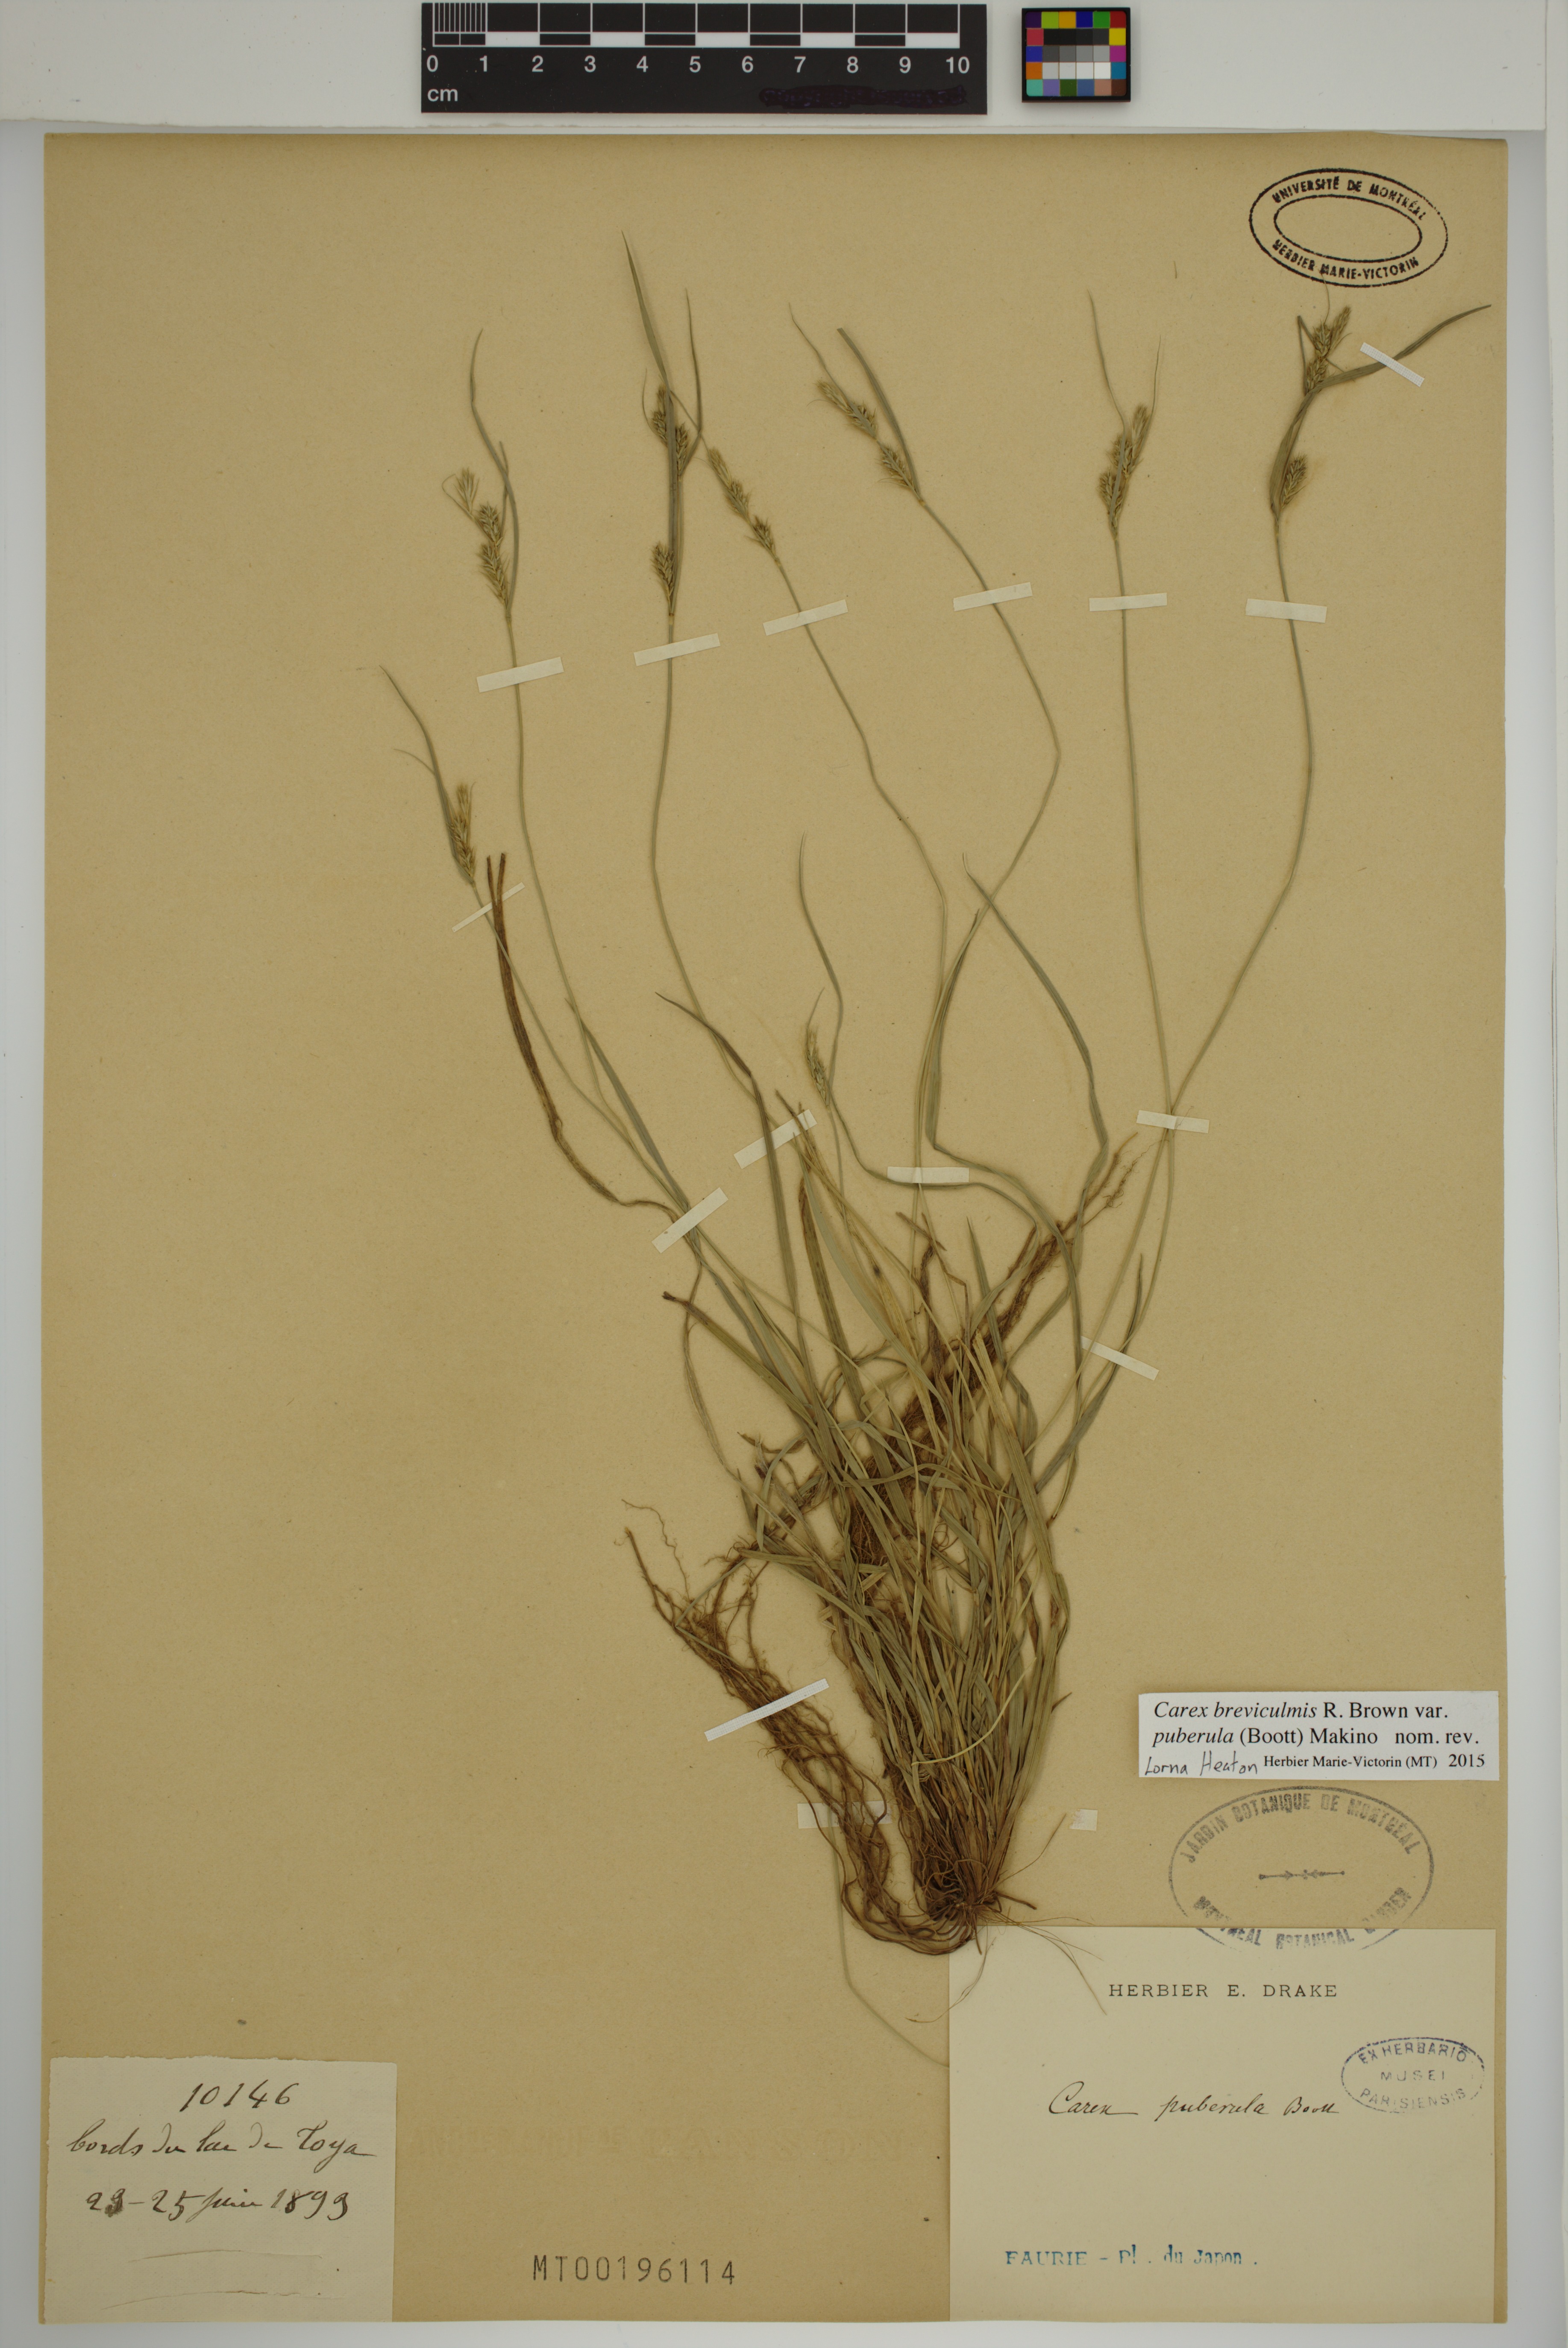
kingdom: Plantae
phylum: Tracheophyta
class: Liliopsida
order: Poales
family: Cyperaceae
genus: Carex
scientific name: Carex leucochlora
